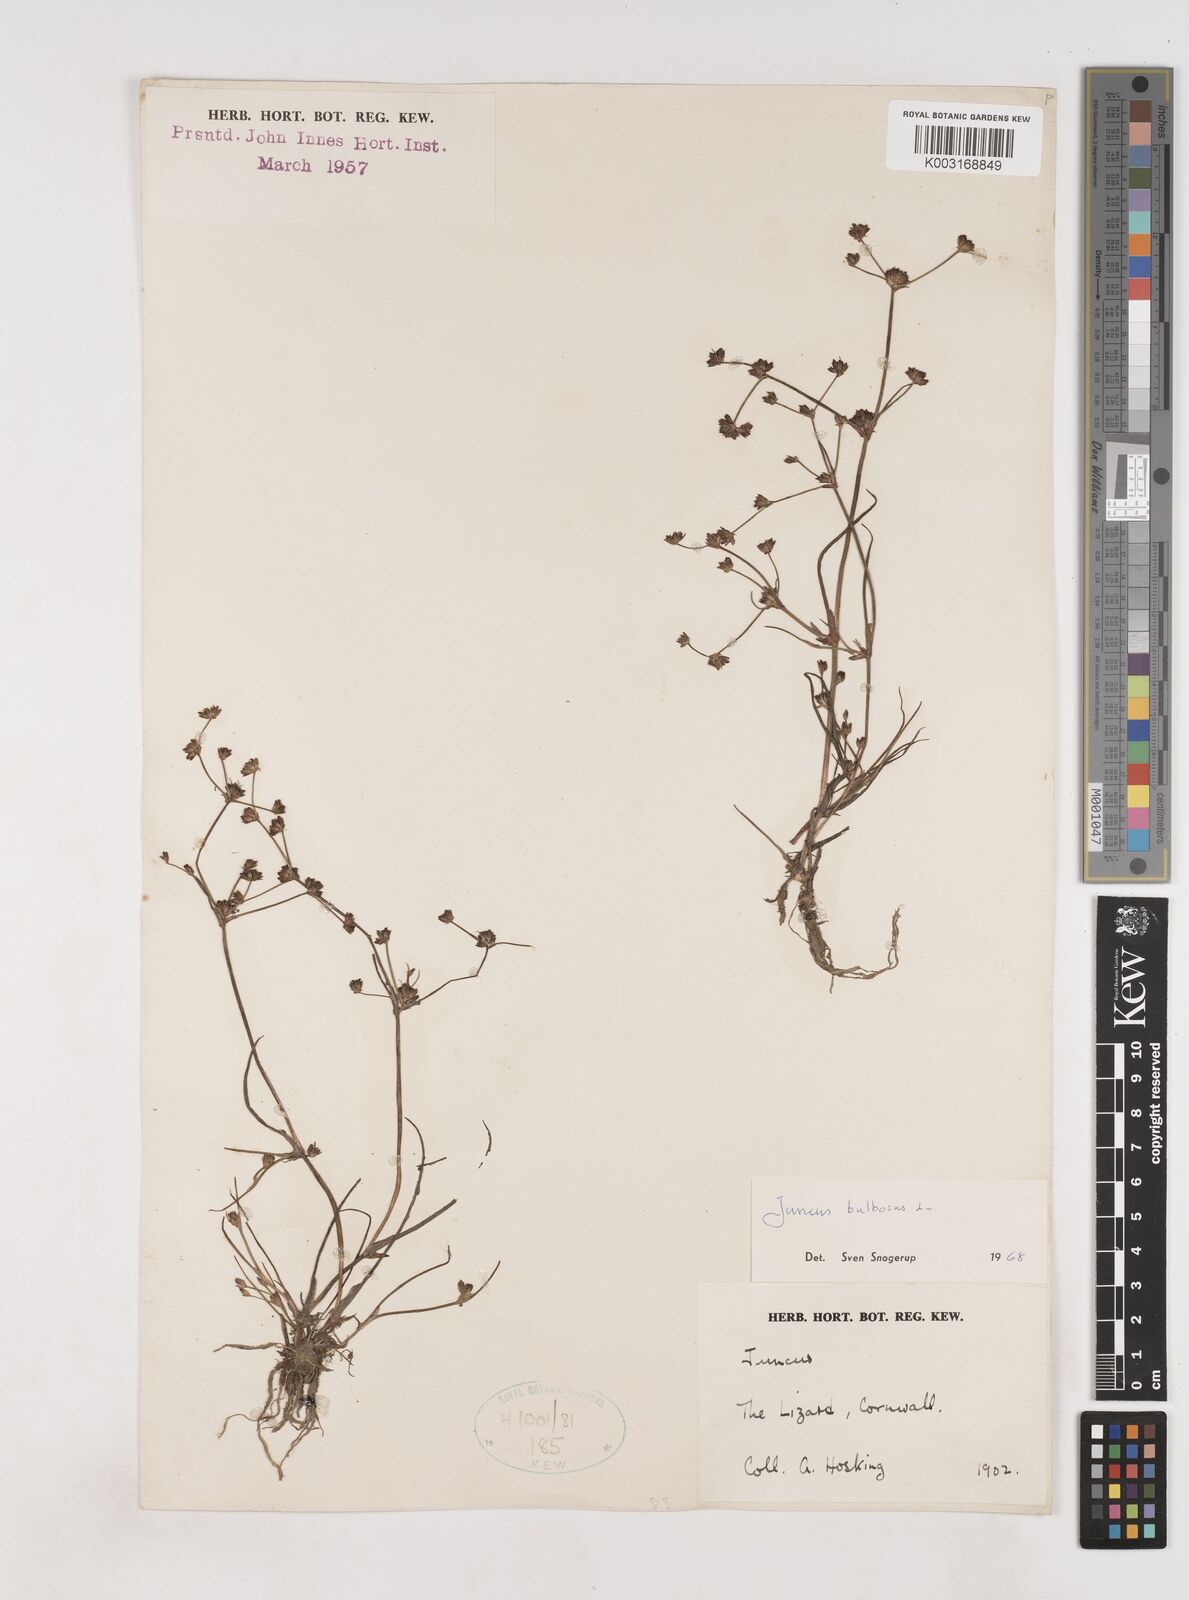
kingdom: Plantae
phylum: Tracheophyta
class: Liliopsida
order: Poales
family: Juncaceae
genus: Juncus
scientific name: Juncus bulbosus
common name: Bulbous rush
